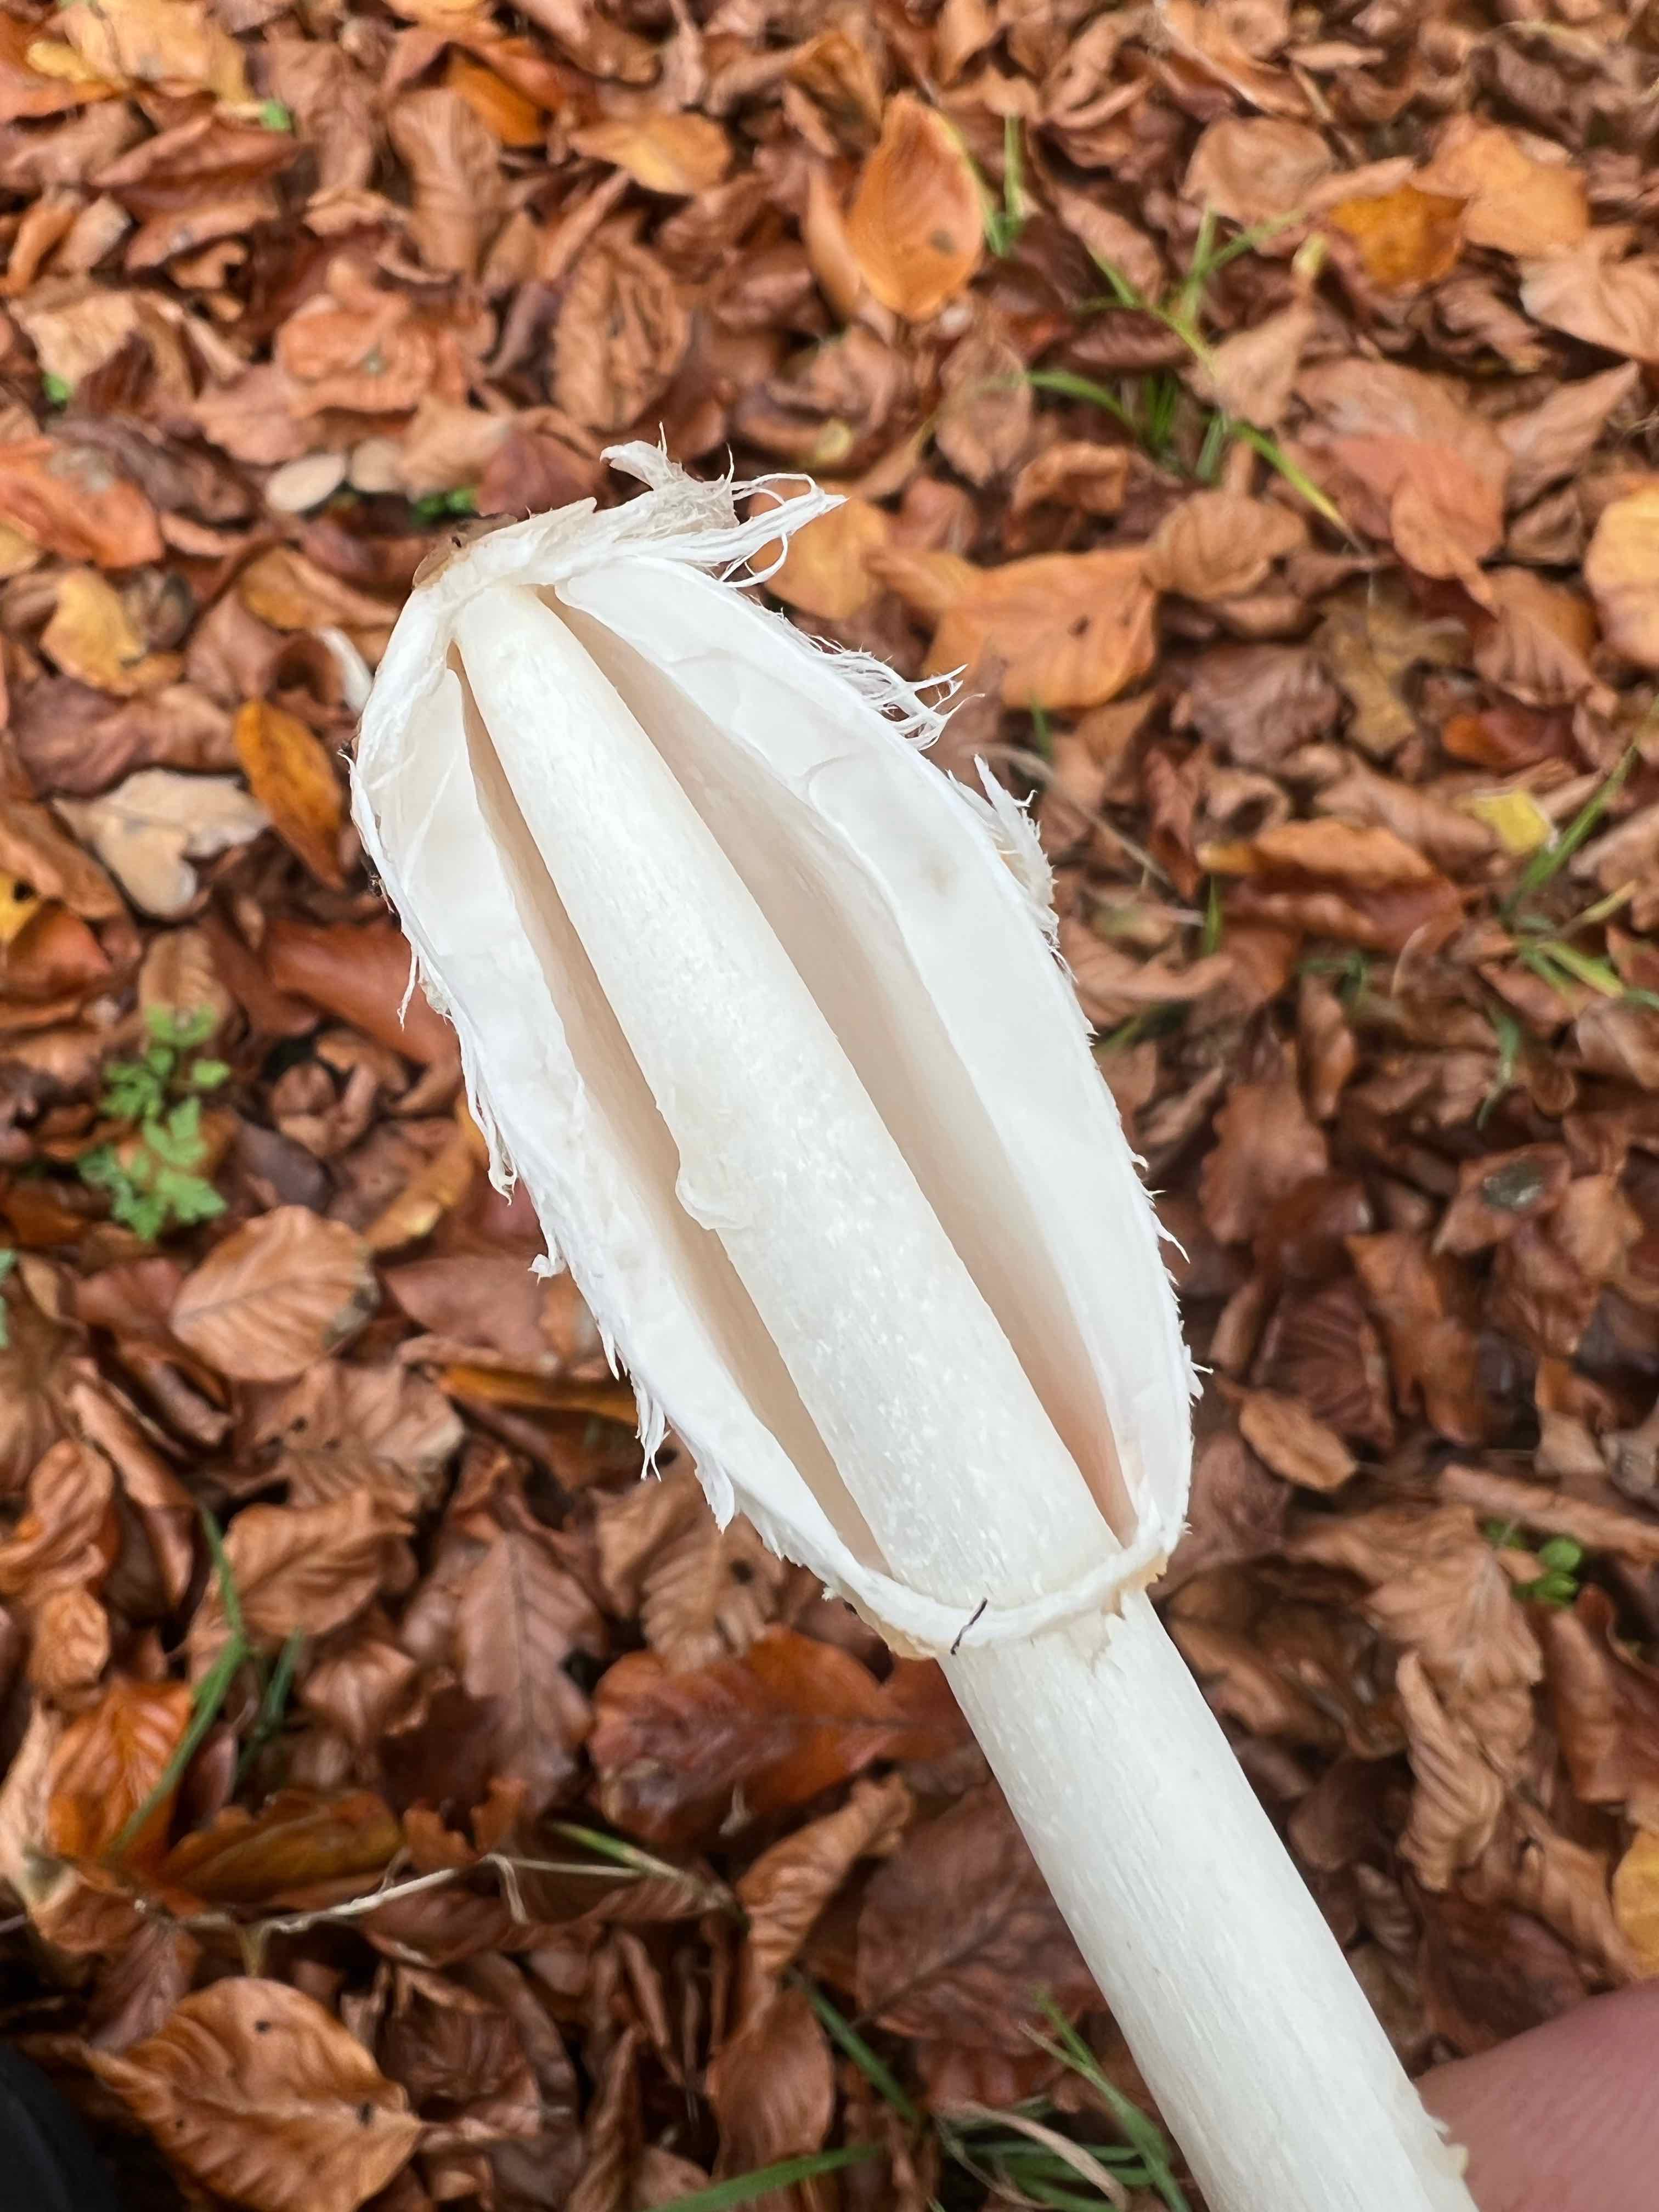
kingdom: Fungi
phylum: Basidiomycota
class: Agaricomycetes
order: Agaricales
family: Agaricaceae
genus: Coprinus
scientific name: Coprinus comatus
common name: stor parykhat
